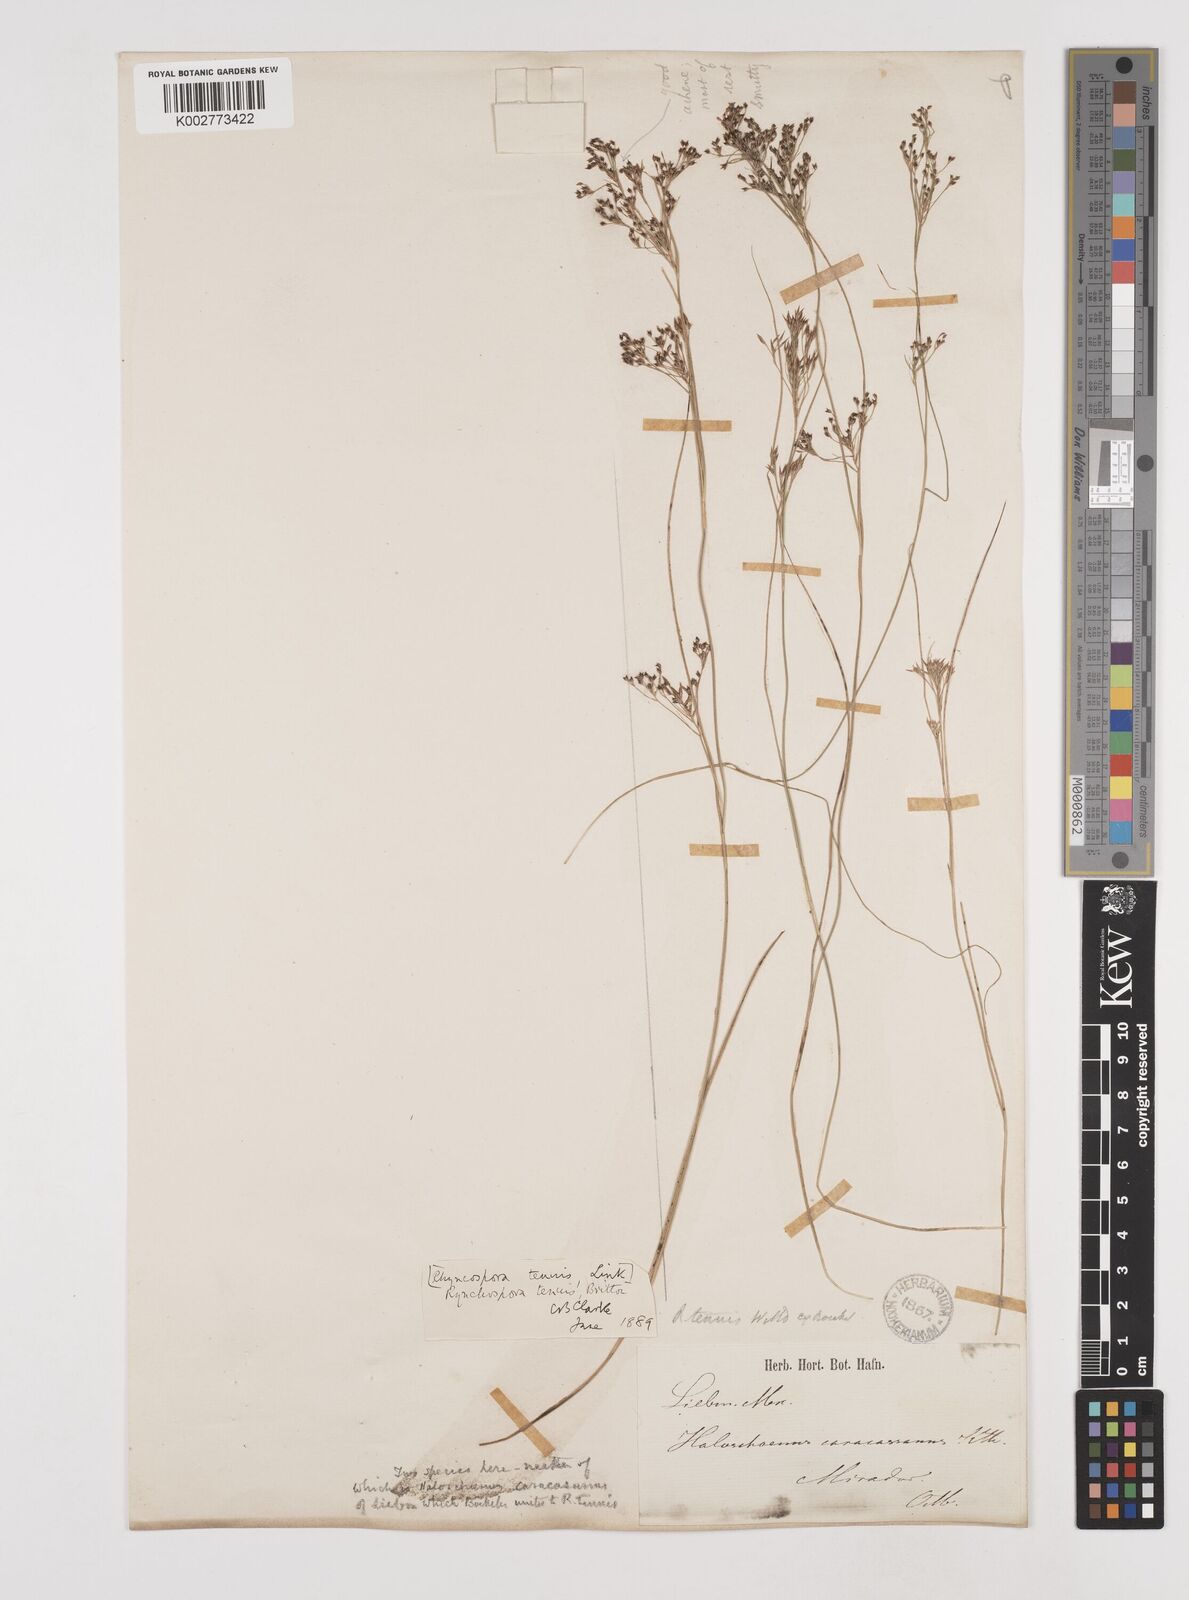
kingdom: Plantae
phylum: Tracheophyta
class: Liliopsida
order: Poales
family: Cyperaceae
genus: Rhynchospora
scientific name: Rhynchospora tenuis
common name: Quill beaksedge
